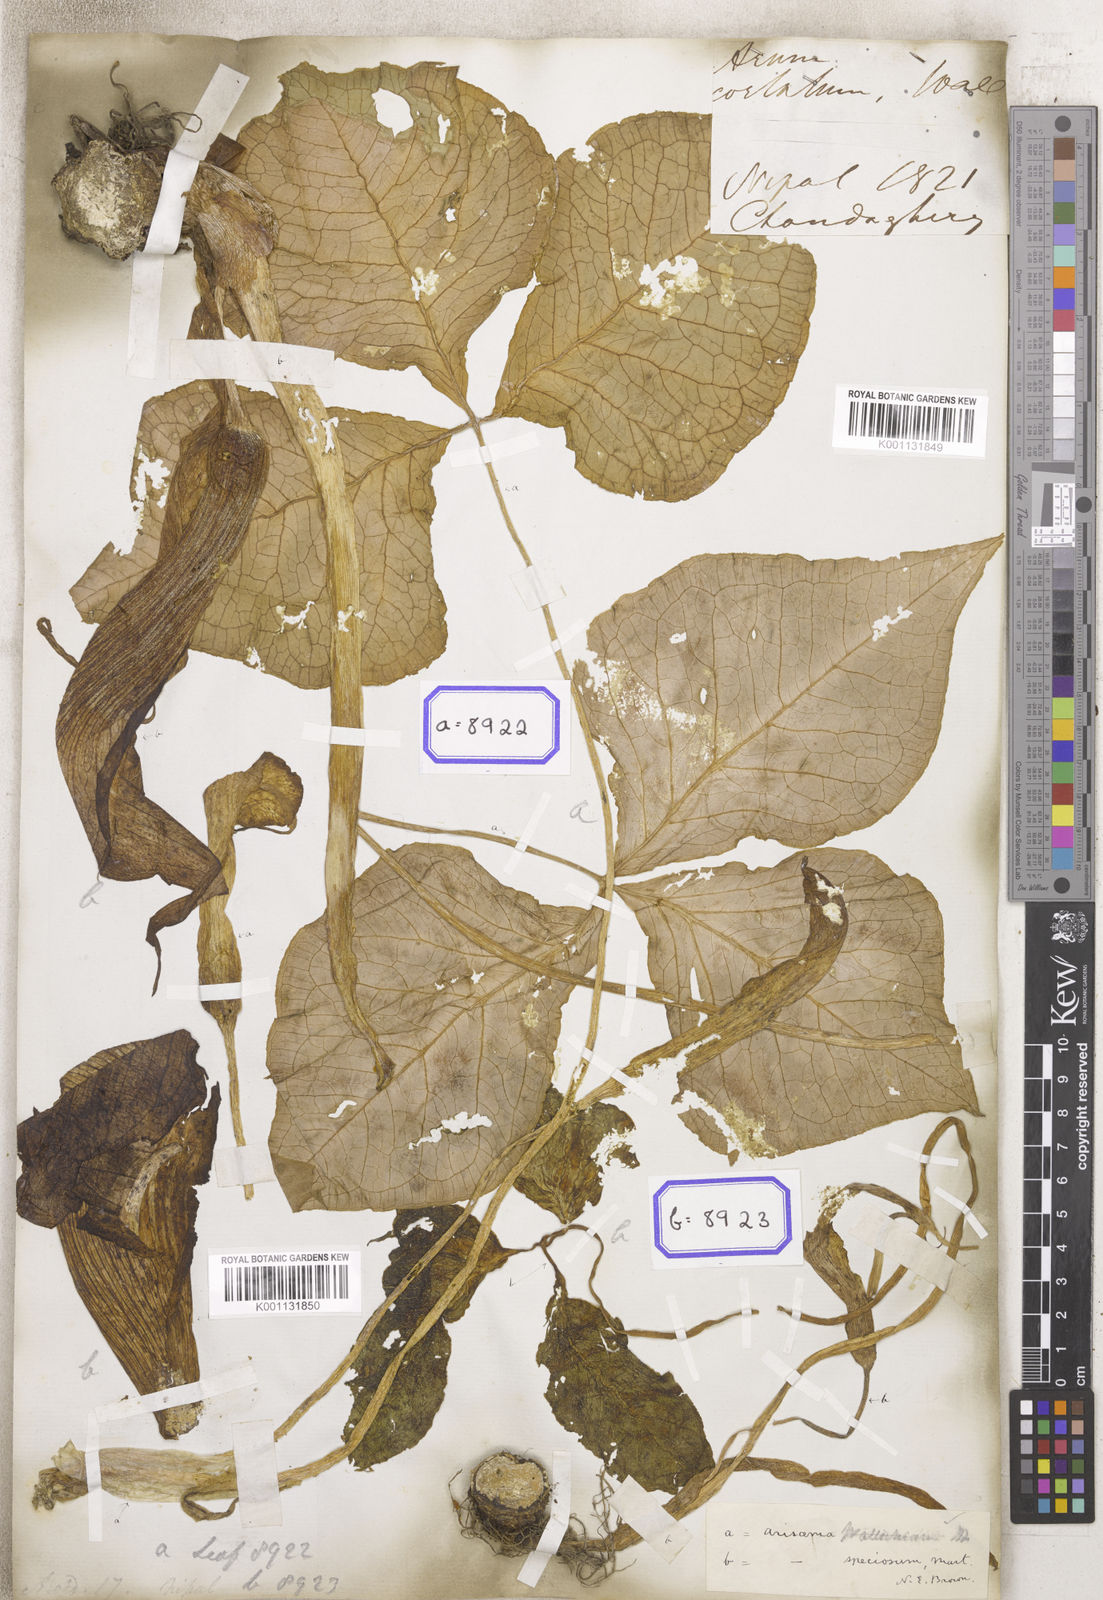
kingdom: Plantae
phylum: Tracheophyta
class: Liliopsida
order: Alismatales
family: Araceae
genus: Arisaema
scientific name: Arisaema costatum
